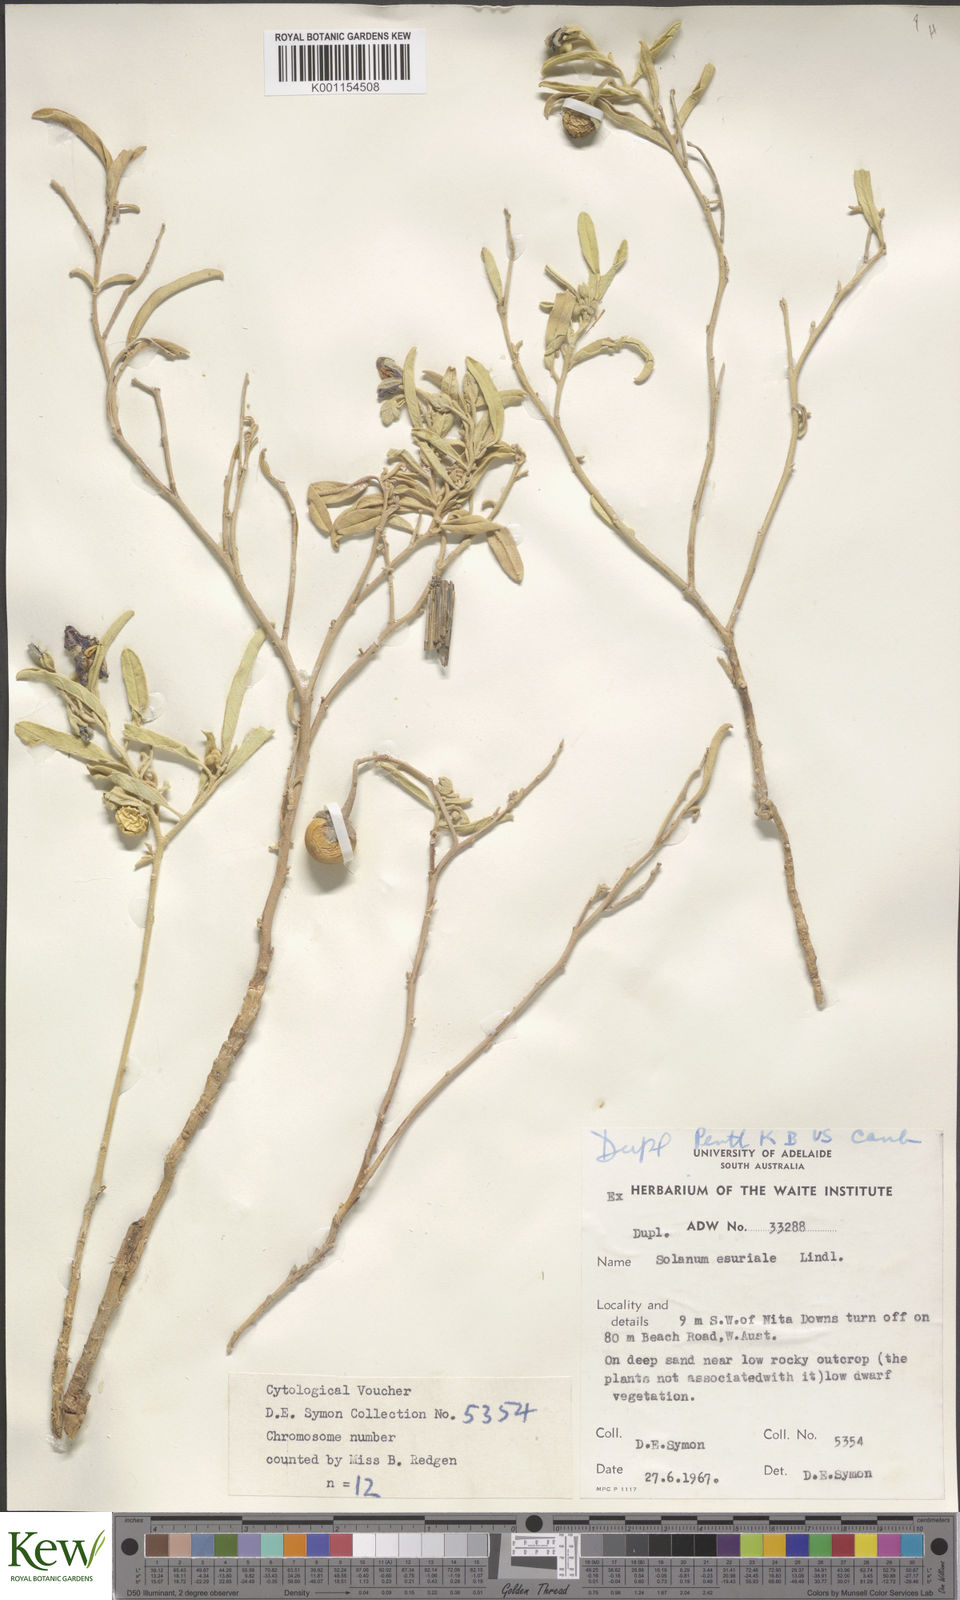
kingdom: Plantae
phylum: Tracheophyta
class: Magnoliopsida
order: Solanales
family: Solanaceae
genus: Solanum
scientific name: Solanum esuriale
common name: Wild tomato
